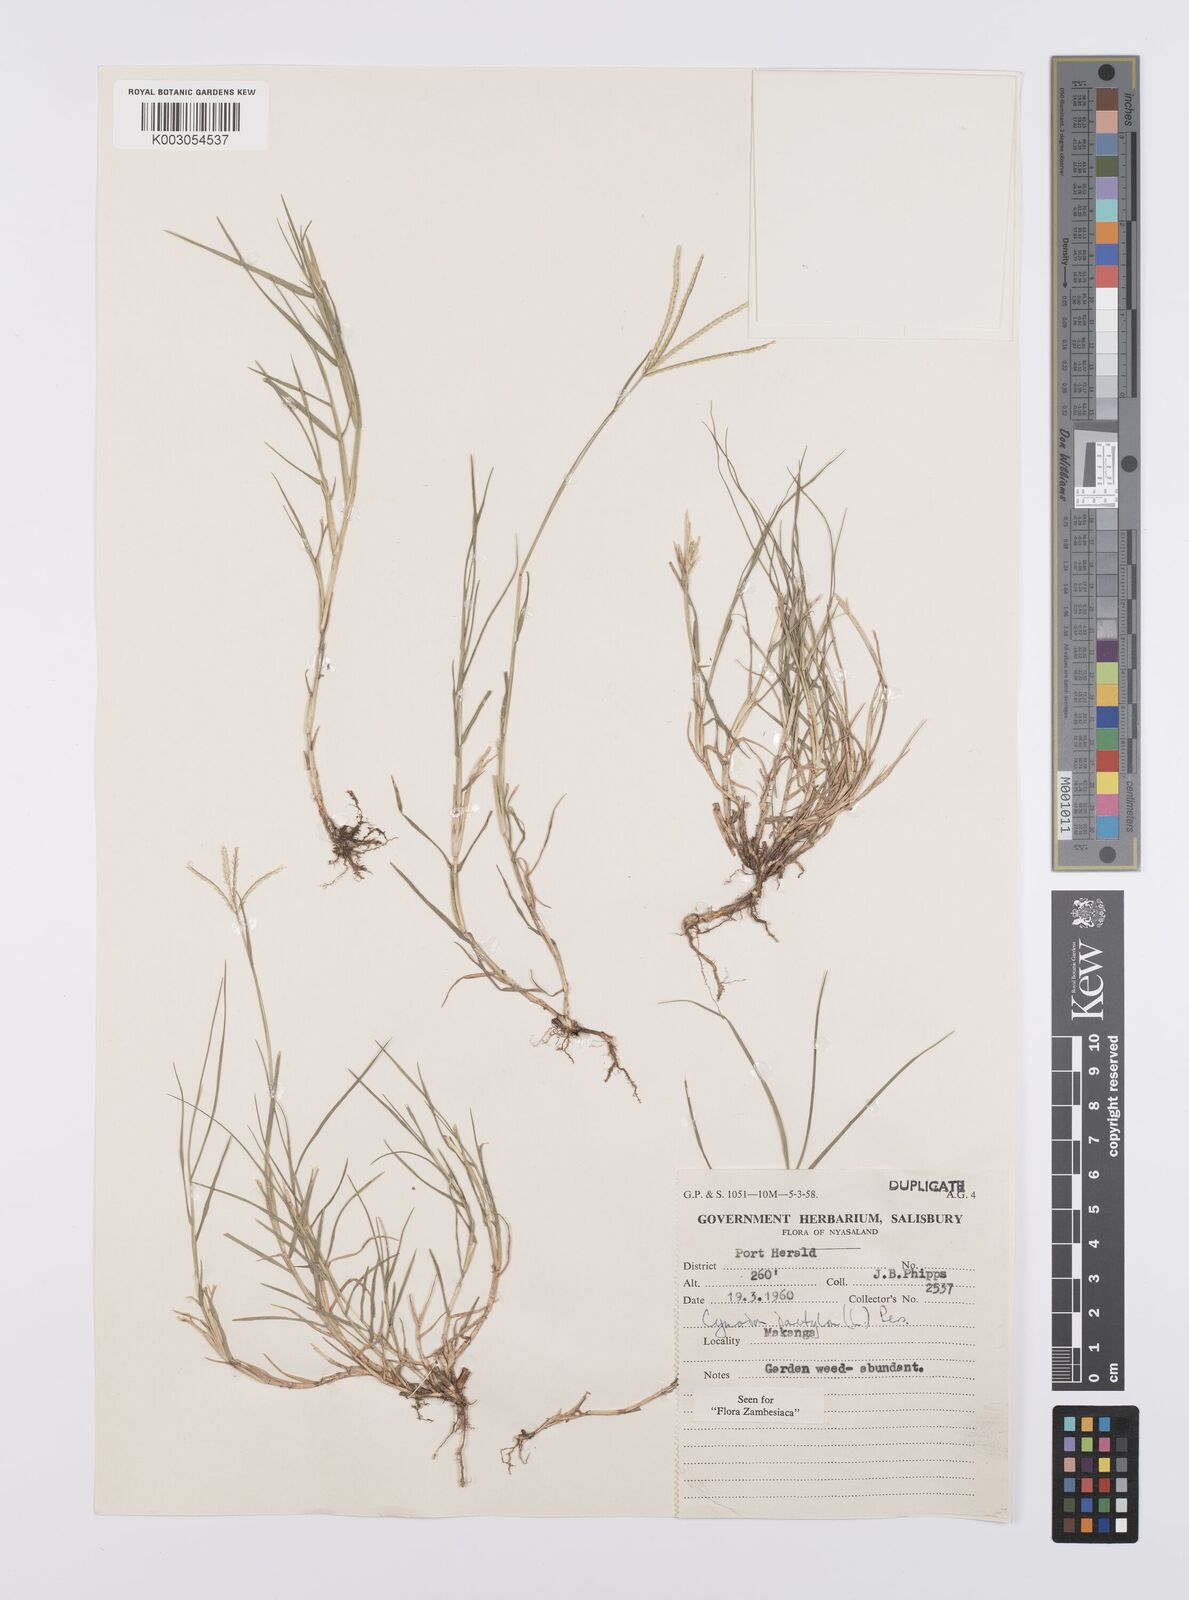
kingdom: Plantae
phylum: Tracheophyta
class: Liliopsida
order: Poales
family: Poaceae
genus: Cynodon
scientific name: Cynodon dactylon
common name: Bermuda grass
